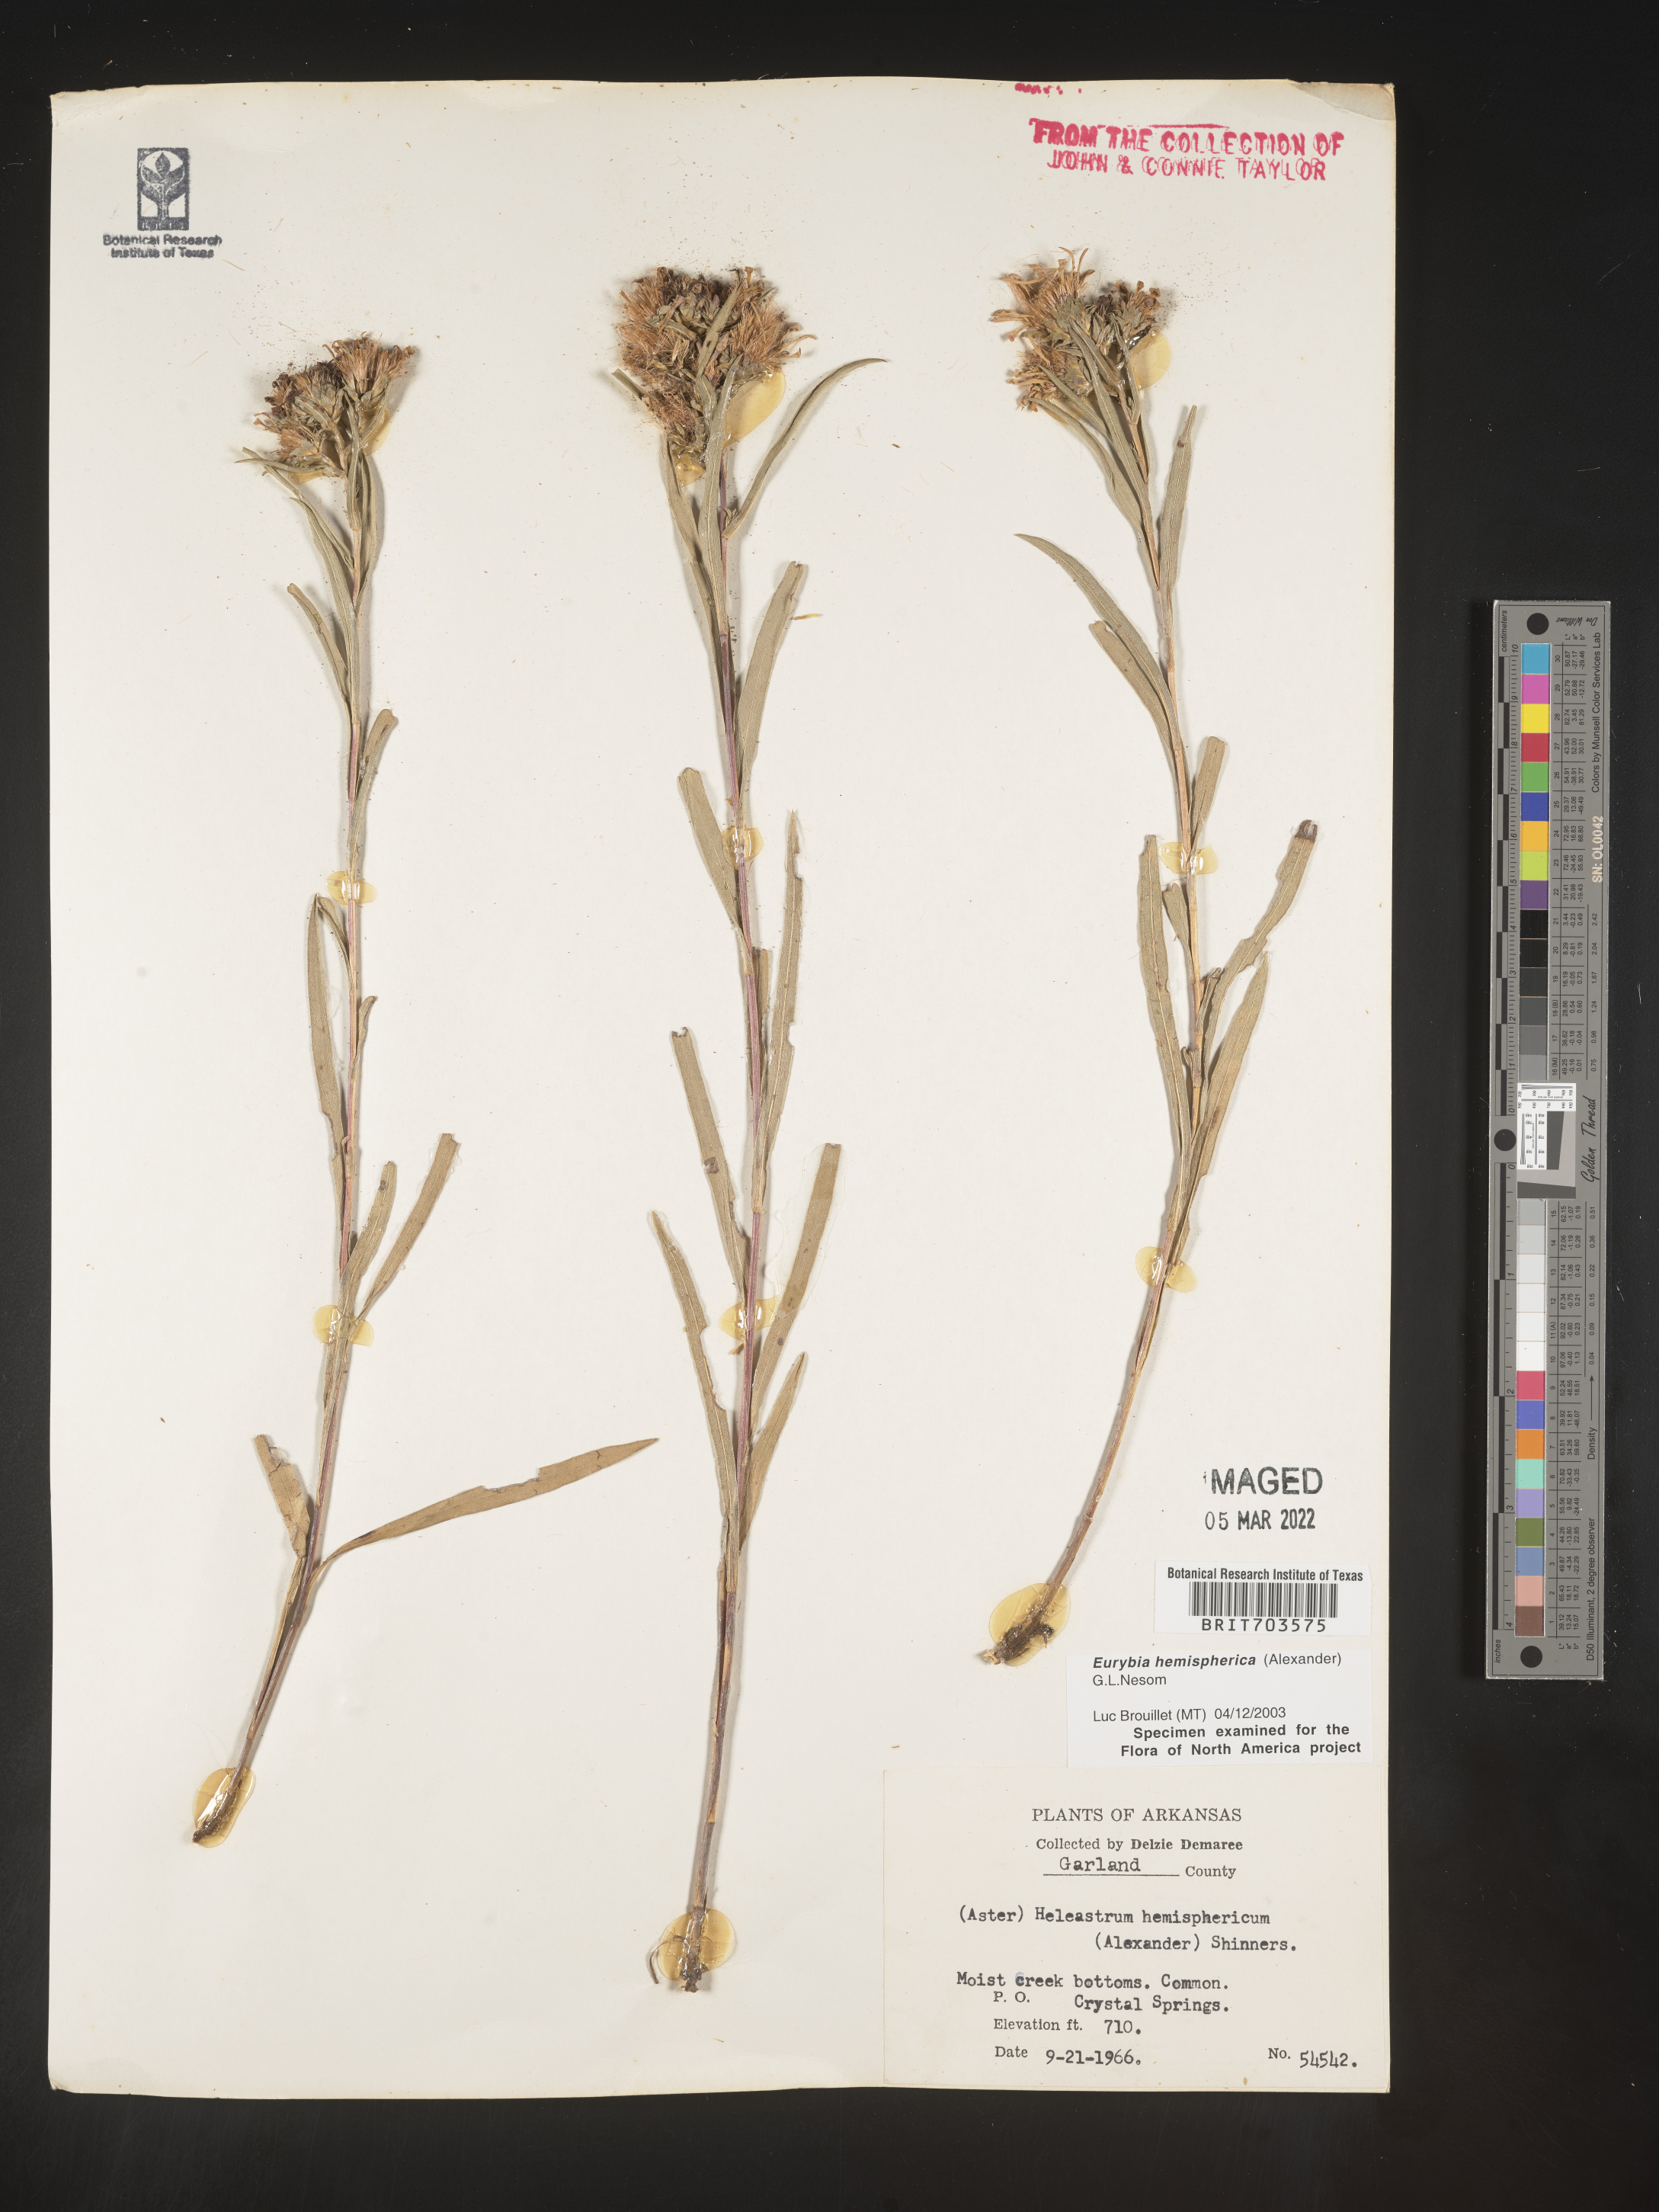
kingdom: Plantae
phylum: Tracheophyta
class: Magnoliopsida
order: Asterales
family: Asteraceae
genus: Eurybia
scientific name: Eurybia hemispherica
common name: Showy aster
